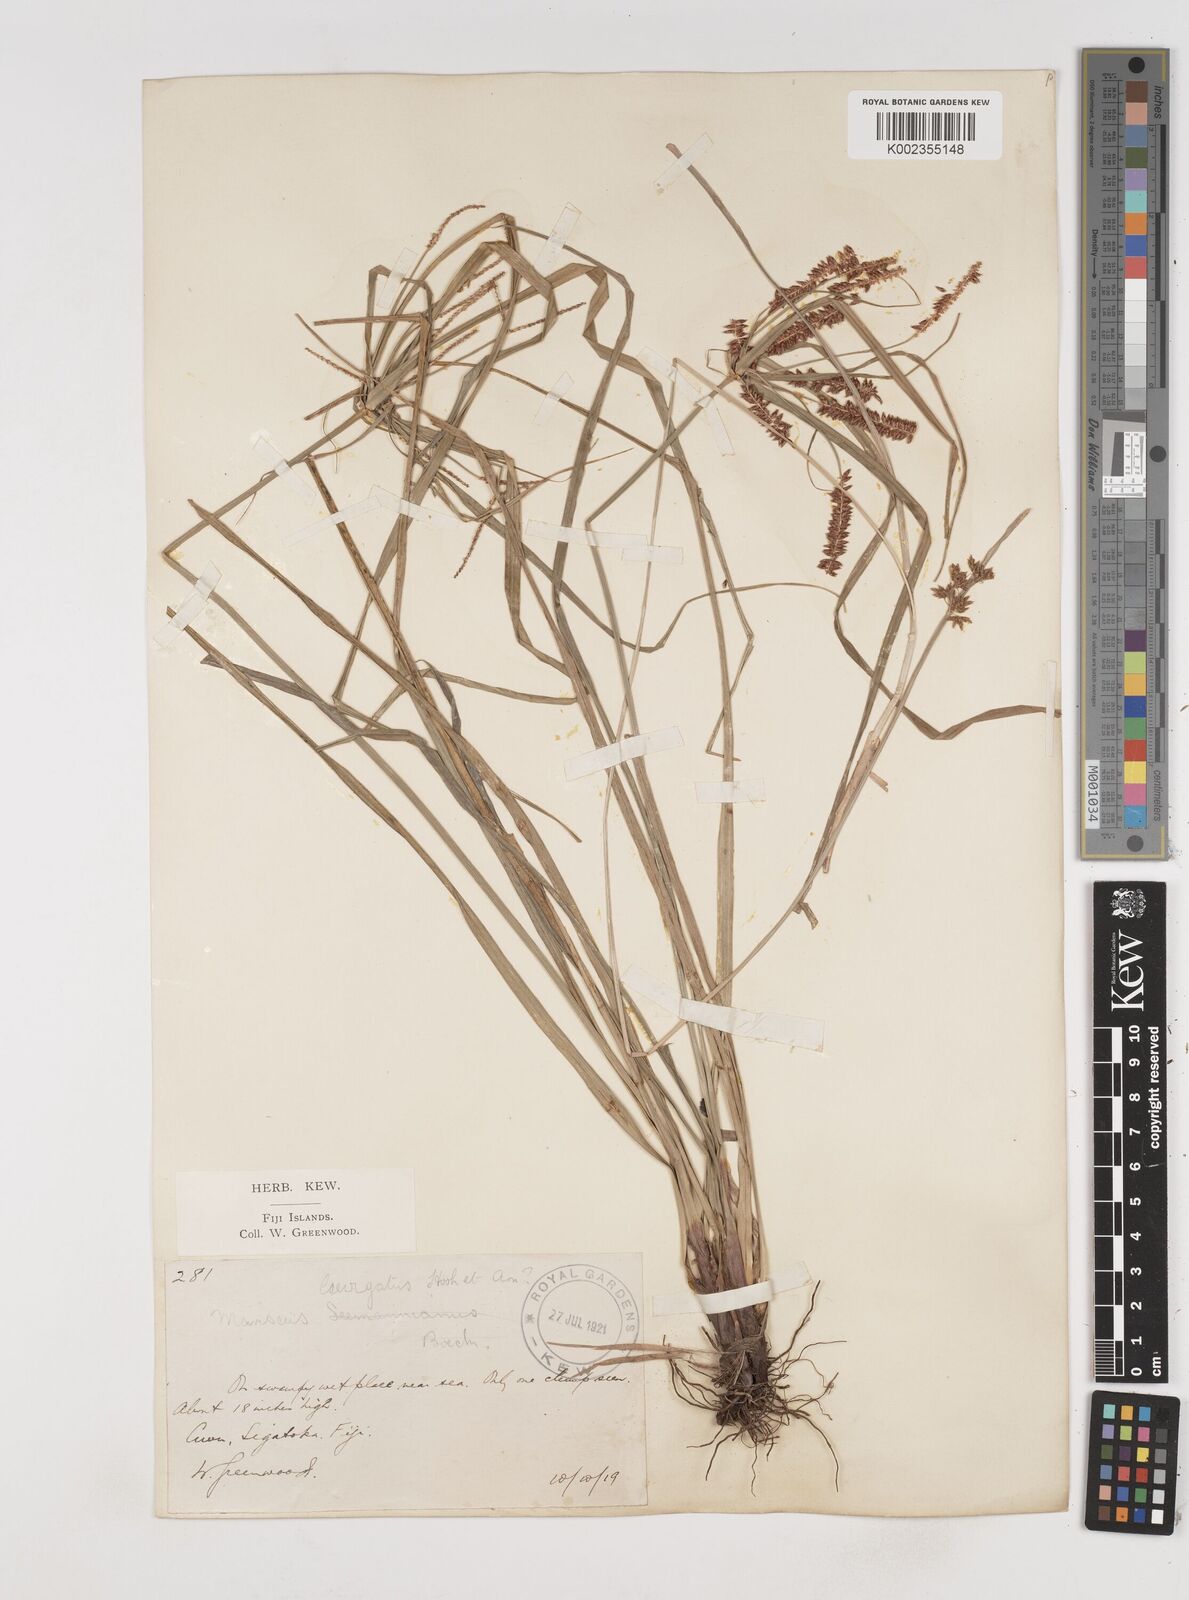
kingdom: Plantae
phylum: Tracheophyta
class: Liliopsida
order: Poales
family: Cyperaceae
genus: Cyperus
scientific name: Cyperus seemannianus
